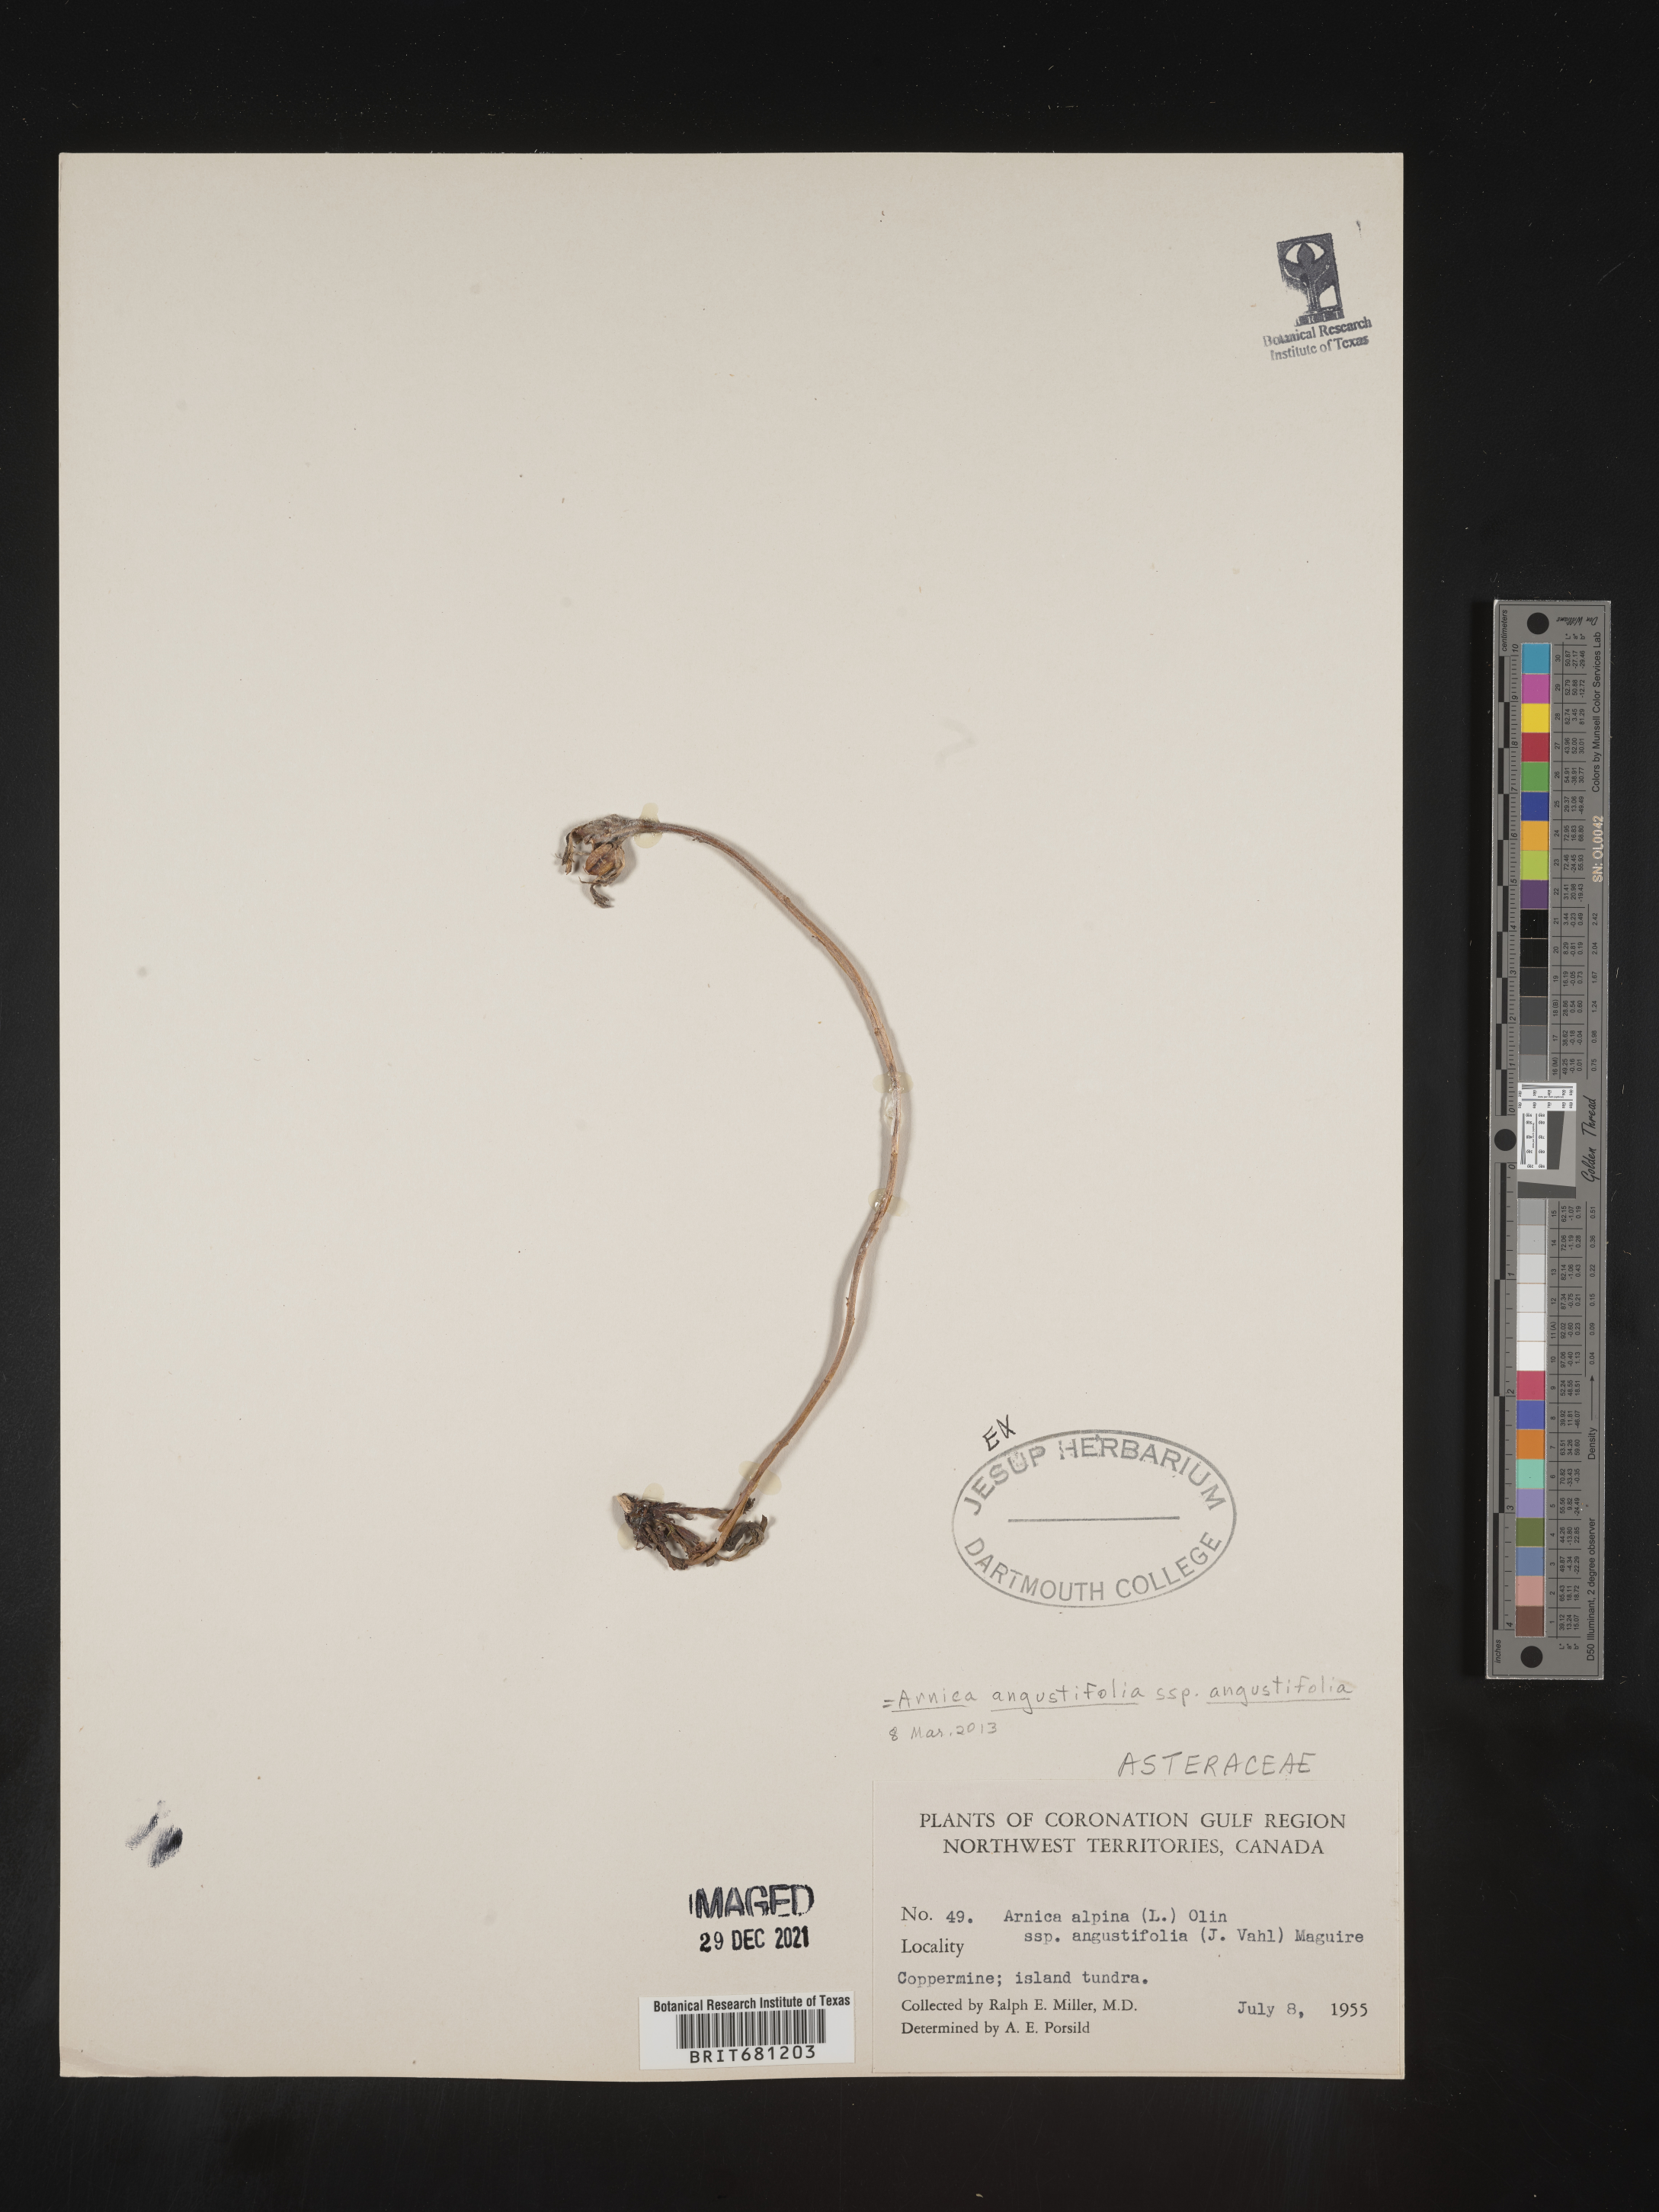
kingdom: Plantae
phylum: Tracheophyta
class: Magnoliopsida
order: Asterales
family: Asteraceae
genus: Arnica
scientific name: Arnica angustifolia
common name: Arctic arnica
